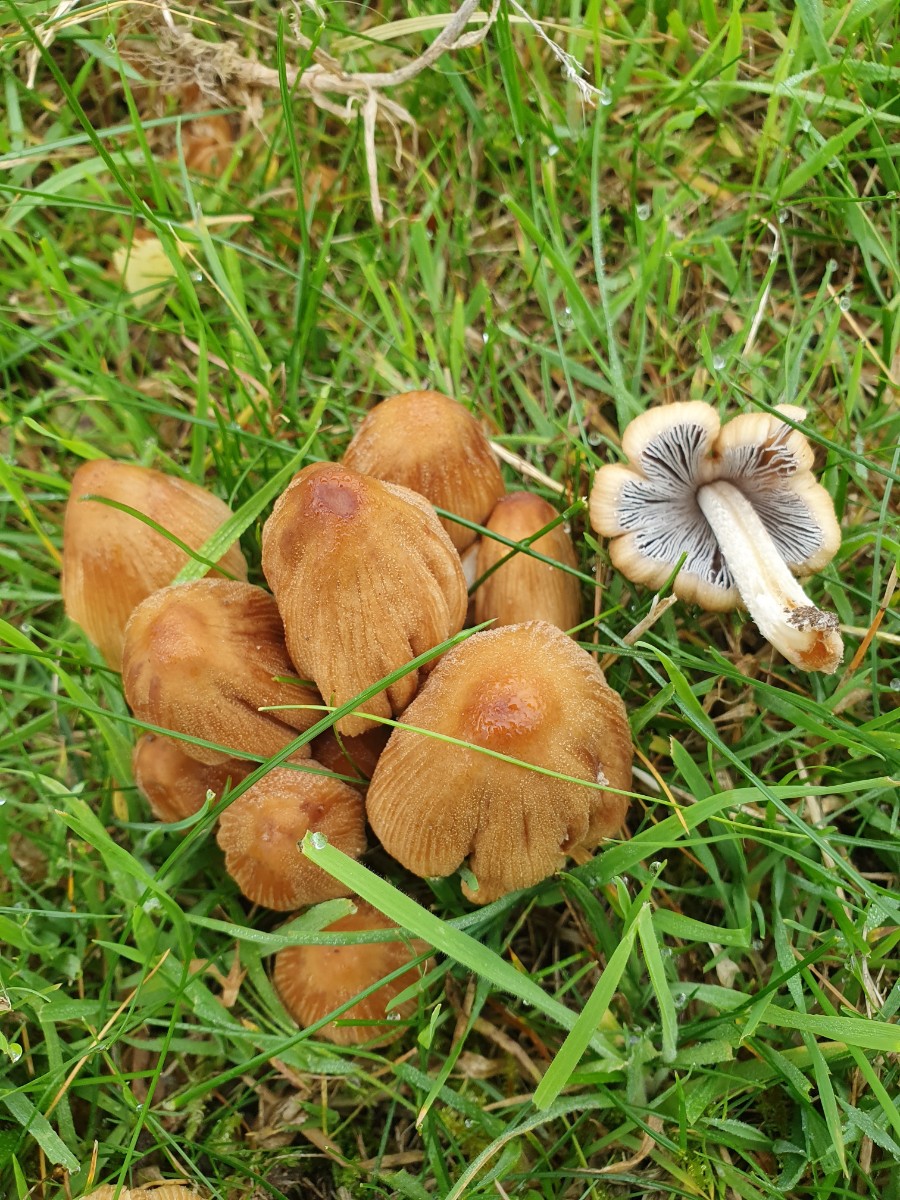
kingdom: Fungi
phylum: Basidiomycota
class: Agaricomycetes
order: Agaricales
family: Psathyrellaceae
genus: Coprinellus
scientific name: Coprinellus micaceus
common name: glimmer-blækhat
